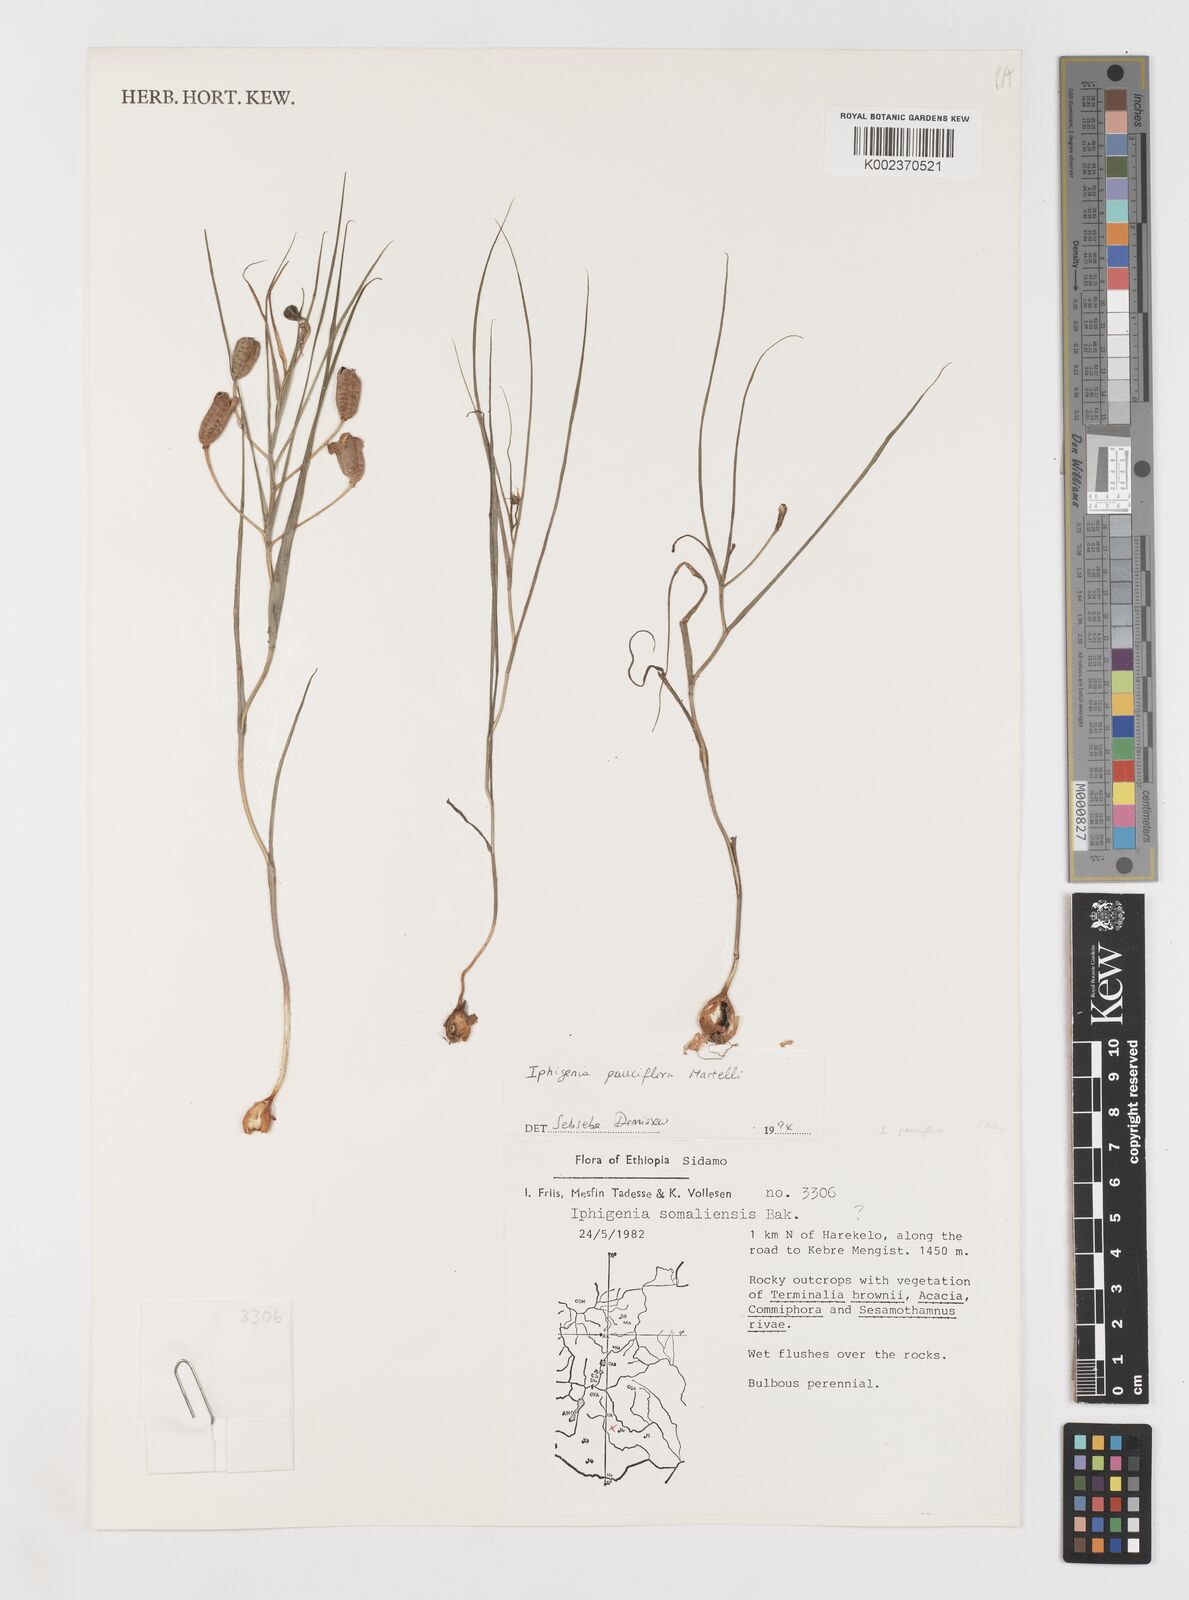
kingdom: Plantae
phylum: Tracheophyta
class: Liliopsida
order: Liliales
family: Colchicaceae
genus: Iphigenia
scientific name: Iphigenia pauciflora
